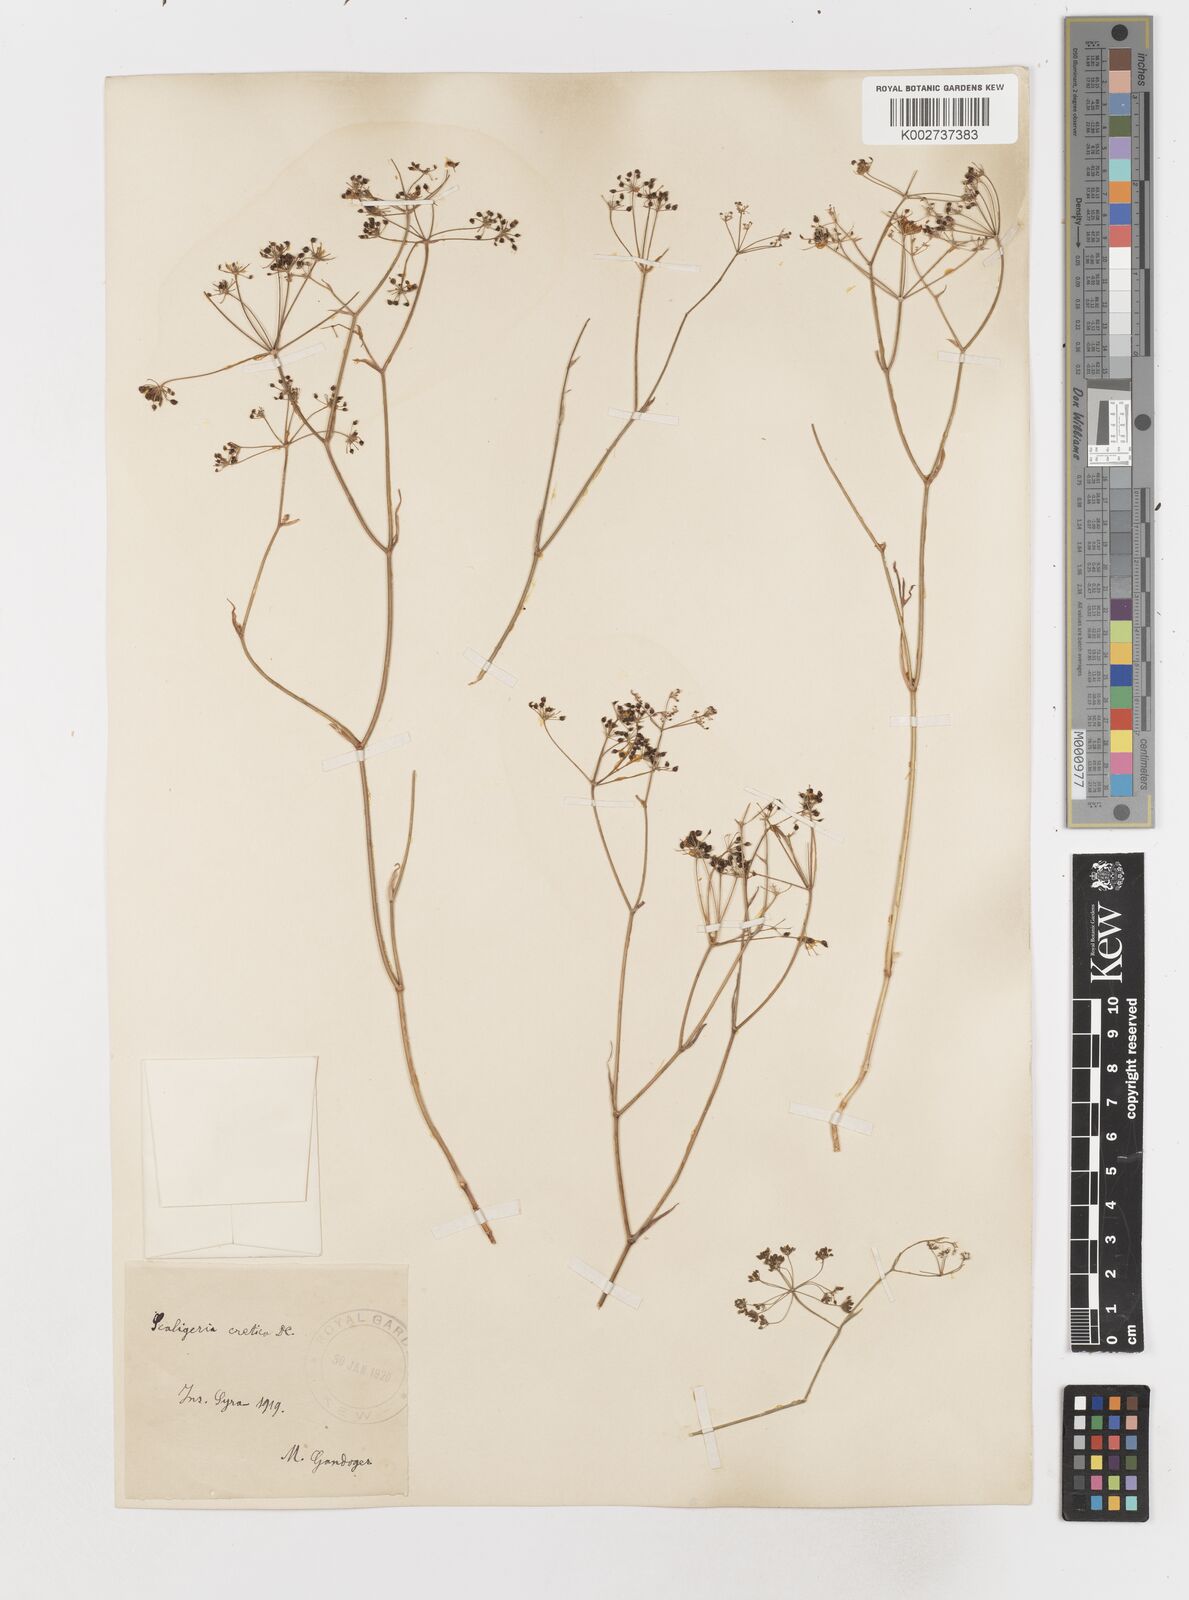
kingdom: Plantae
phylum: Tracheophyta
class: Magnoliopsida
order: Apiales
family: Apiaceae
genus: Scaligeria
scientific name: Scaligeria
